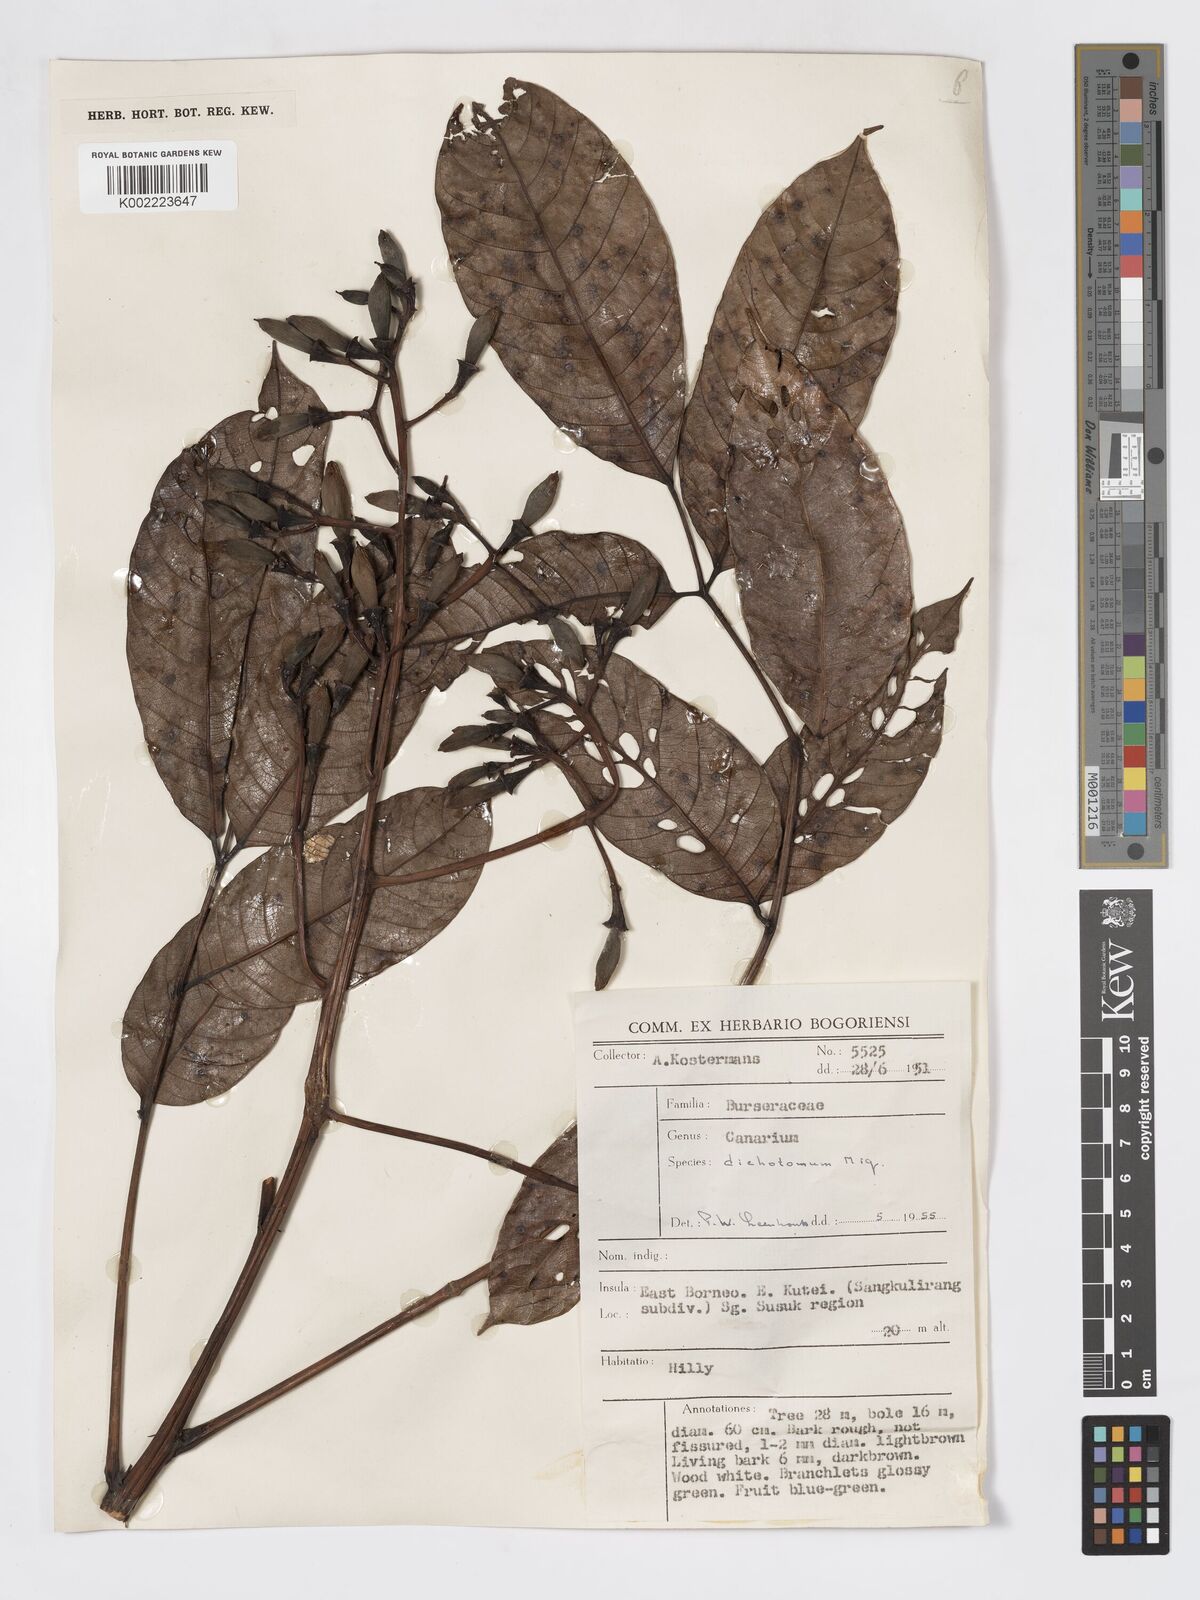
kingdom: Plantae
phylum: Tracheophyta
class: Magnoliopsida
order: Sapindales
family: Burseraceae
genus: Canarium
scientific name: Canarium dichotomum
